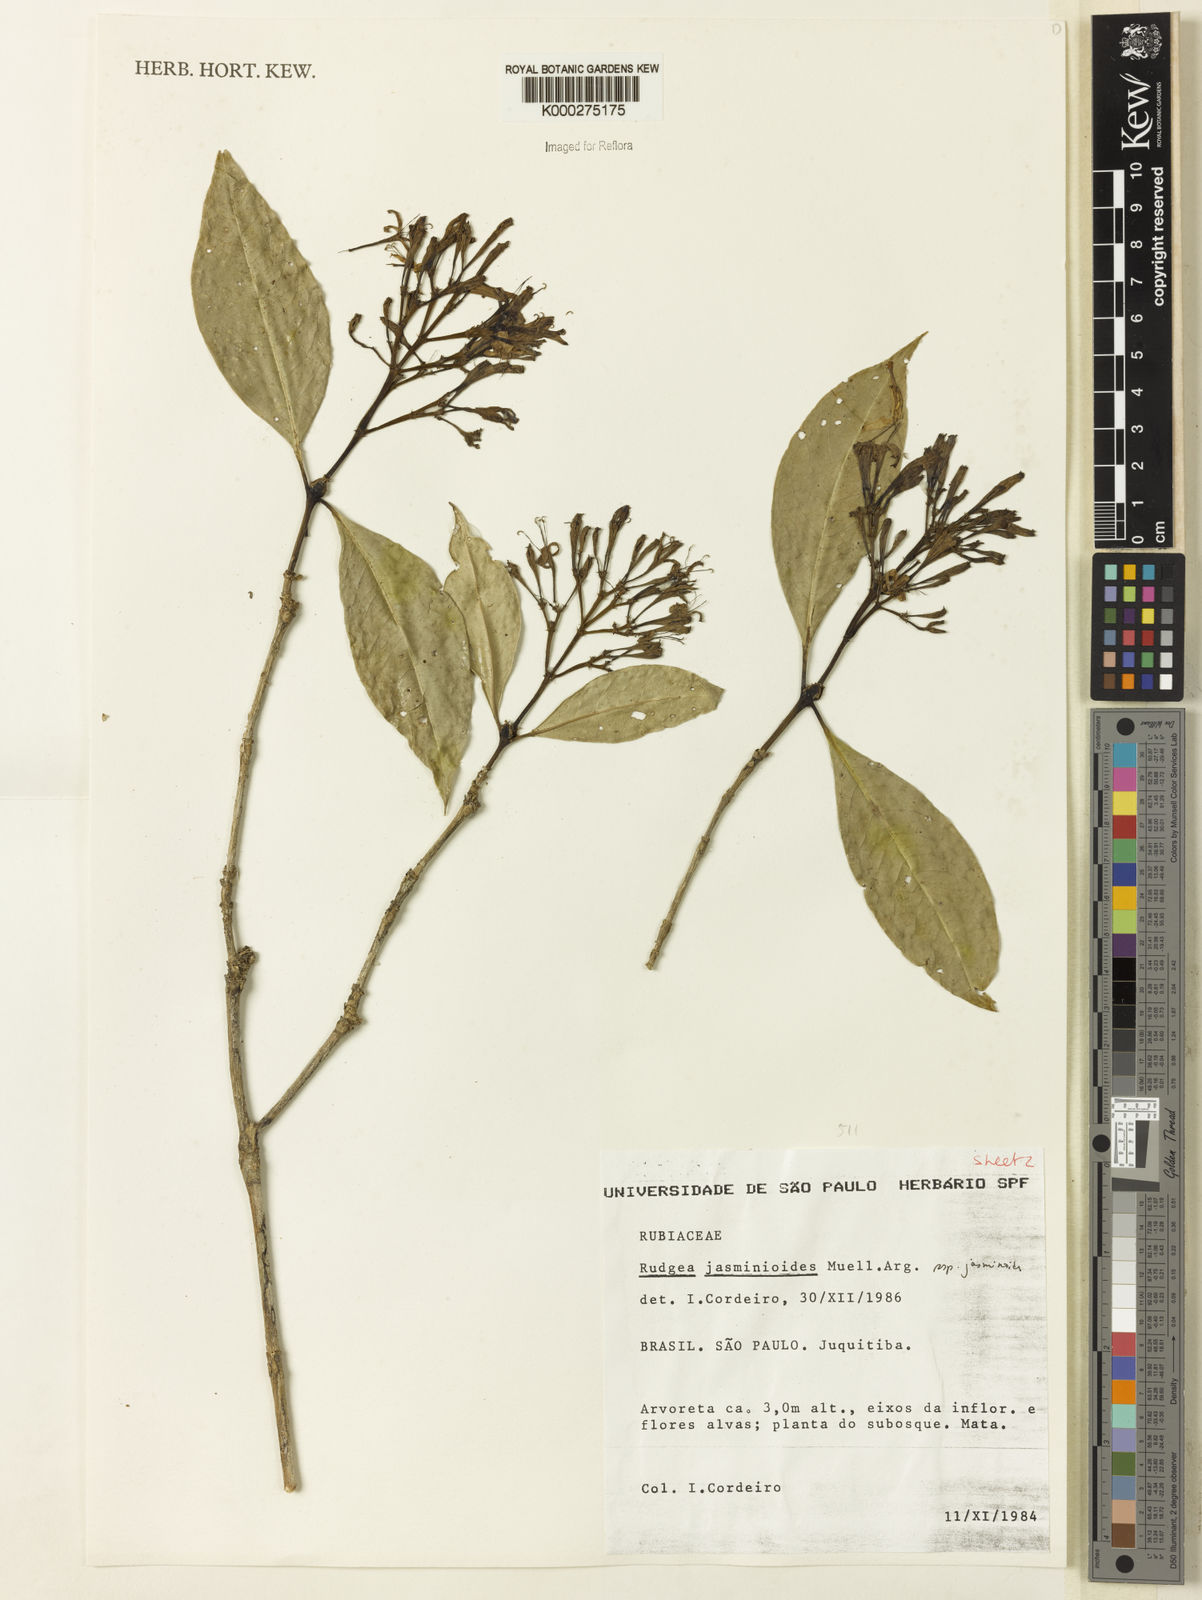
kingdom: Plantae
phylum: Tracheophyta
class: Magnoliopsida
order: Gentianales
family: Rubiaceae
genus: Rudgea
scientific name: Rudgea jasminoides
